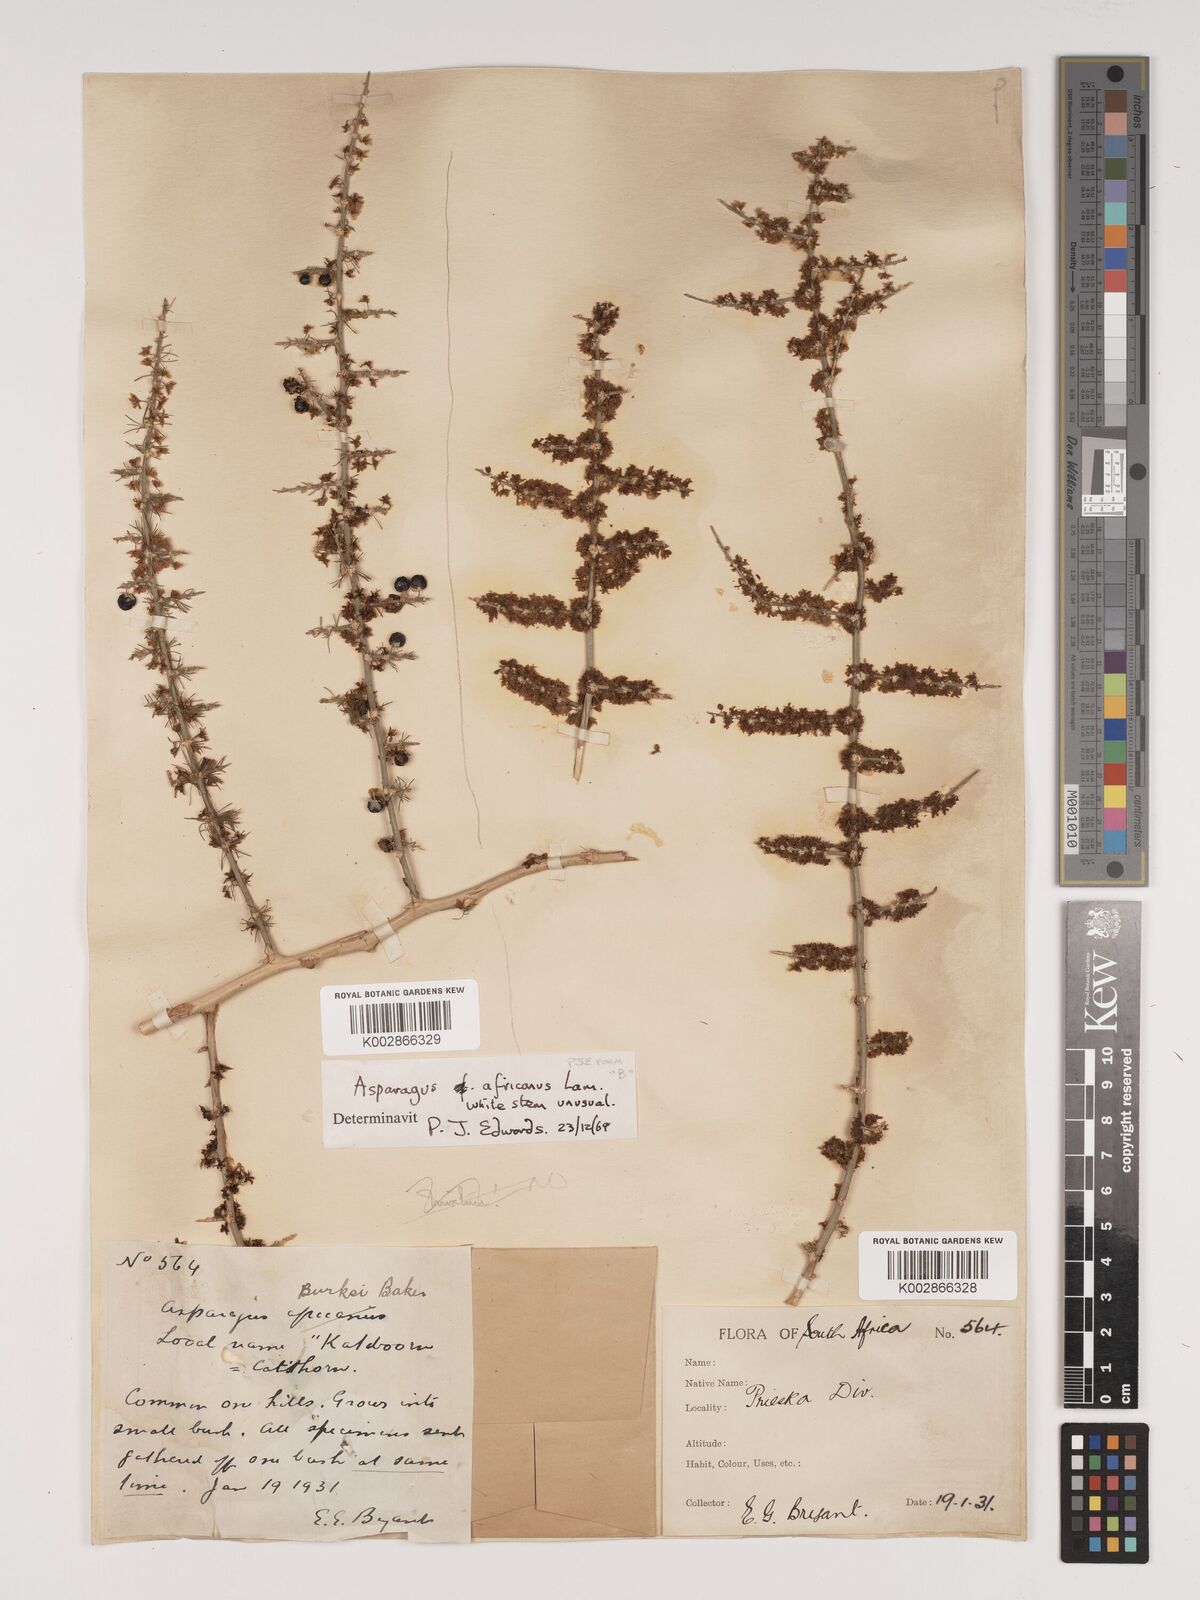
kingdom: Plantae
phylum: Tracheophyta
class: Liliopsida
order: Asparagales
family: Asparagaceae
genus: Asparagus
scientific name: Asparagus africanus
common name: Asparagus-fern
